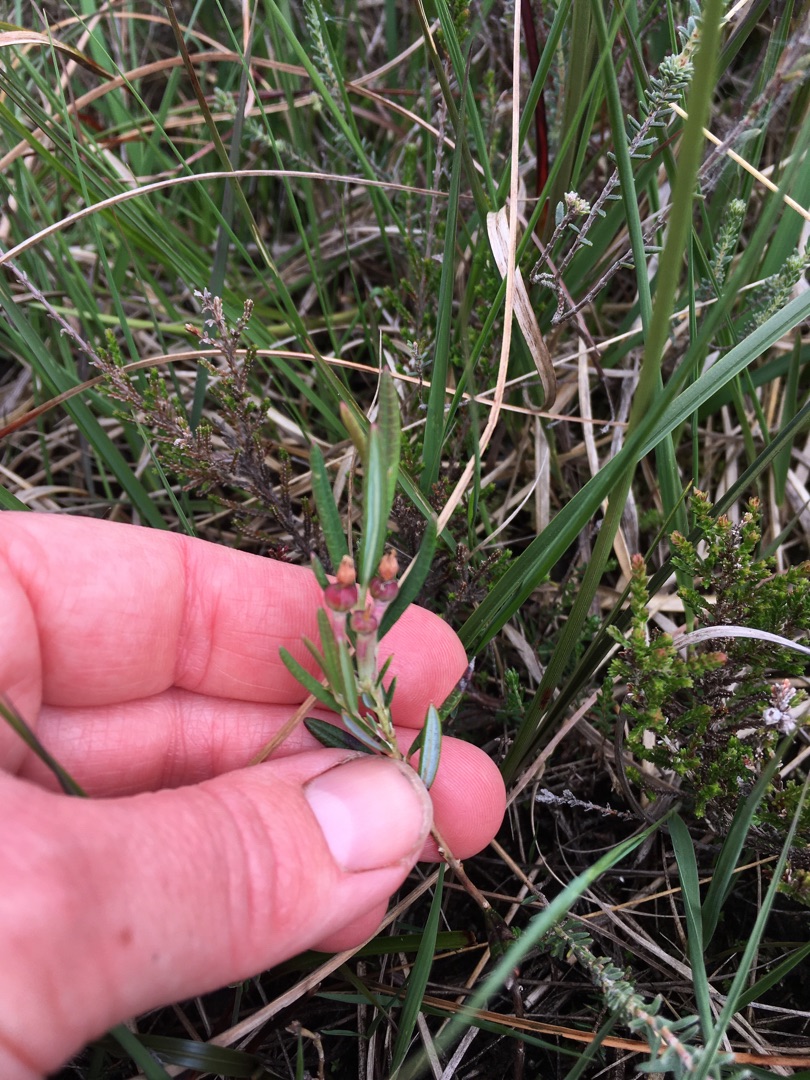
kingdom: Plantae
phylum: Tracheophyta
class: Magnoliopsida
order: Ericales
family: Ericaceae
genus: Andromeda
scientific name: Andromeda polifolia
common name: Rosmarinlyng
